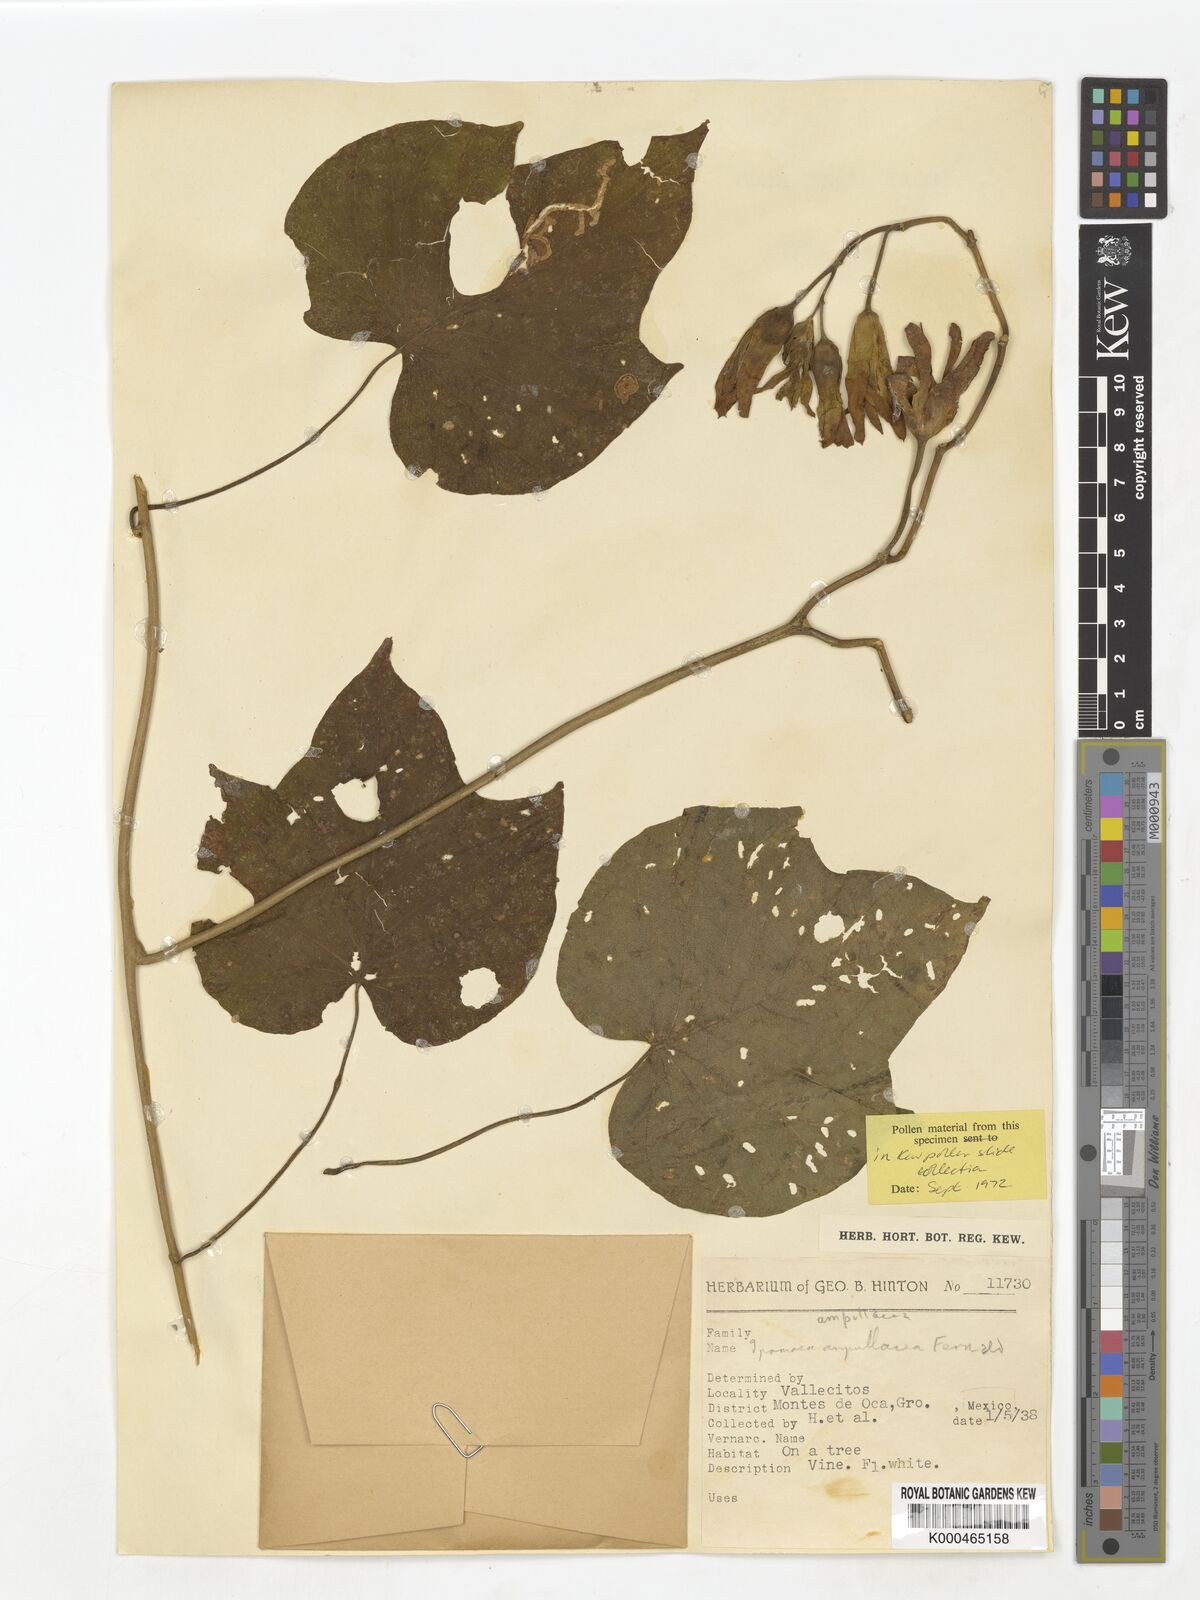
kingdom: Plantae
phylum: Tracheophyta
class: Magnoliopsida
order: Solanales
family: Convolvulaceae
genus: Ipomoea
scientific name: Ipomoea ampullacea
